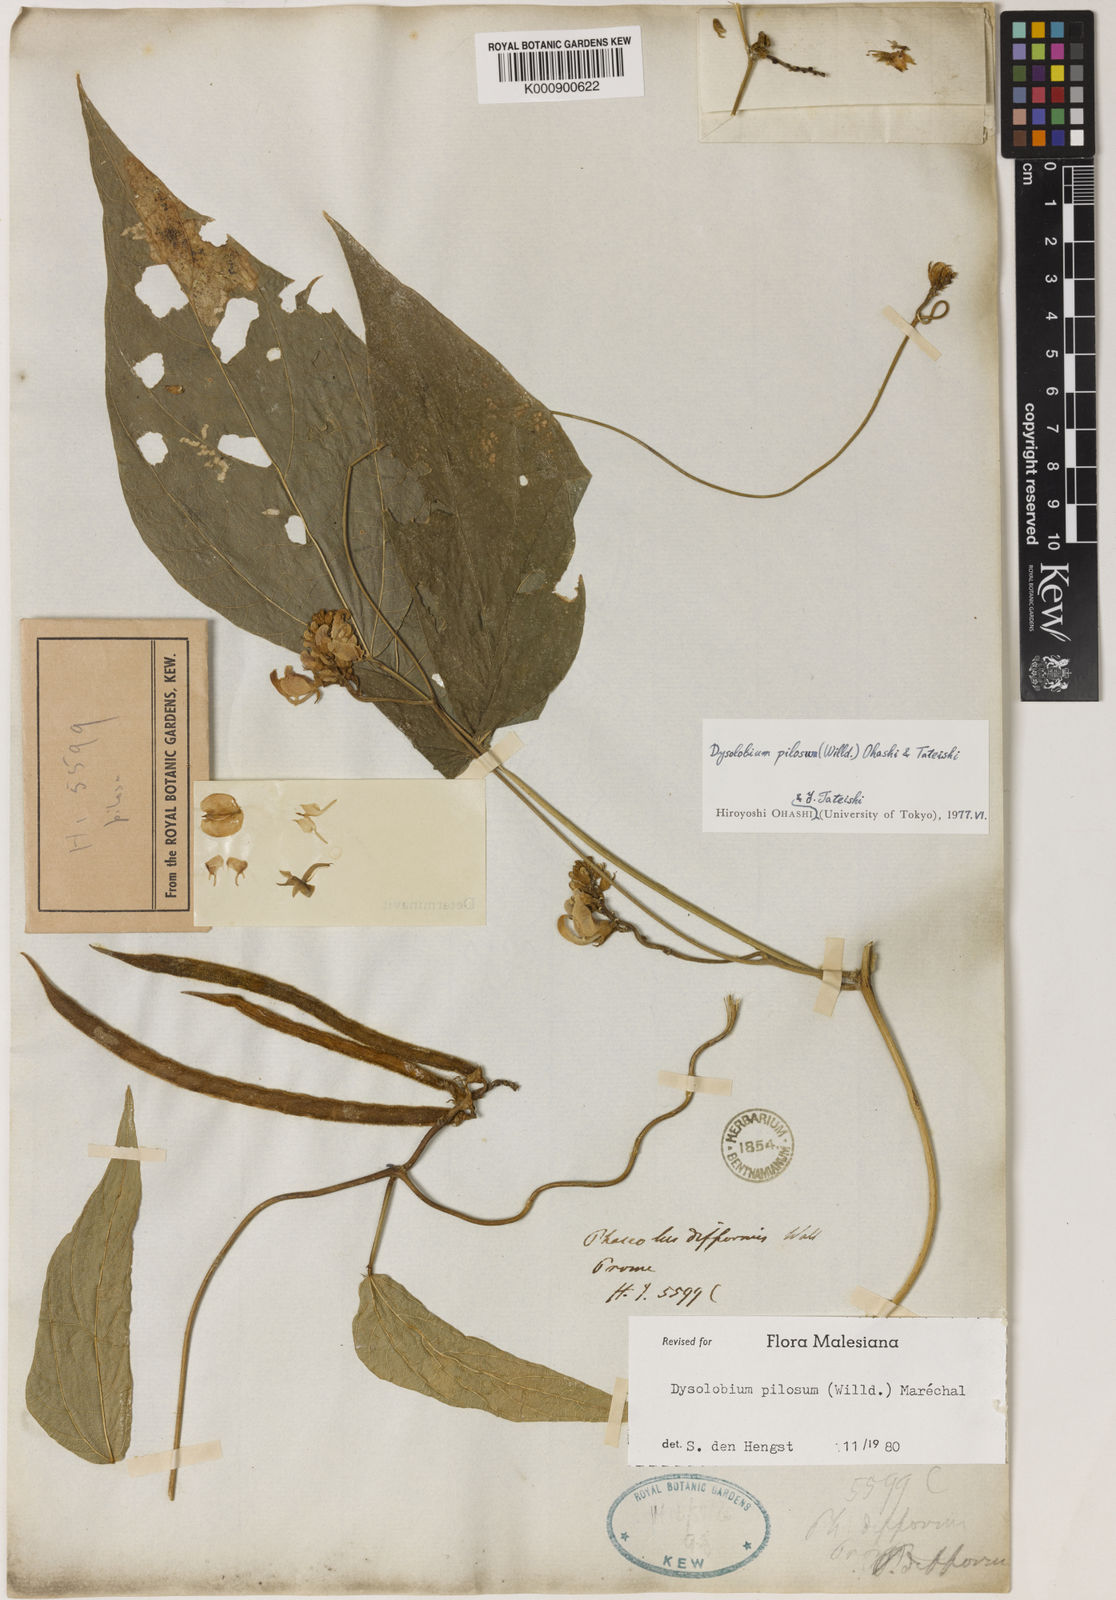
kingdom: Plantae
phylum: Tracheophyta
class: Magnoliopsida
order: Fabales
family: Fabaceae
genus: Dysolobium
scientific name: Dysolobium
